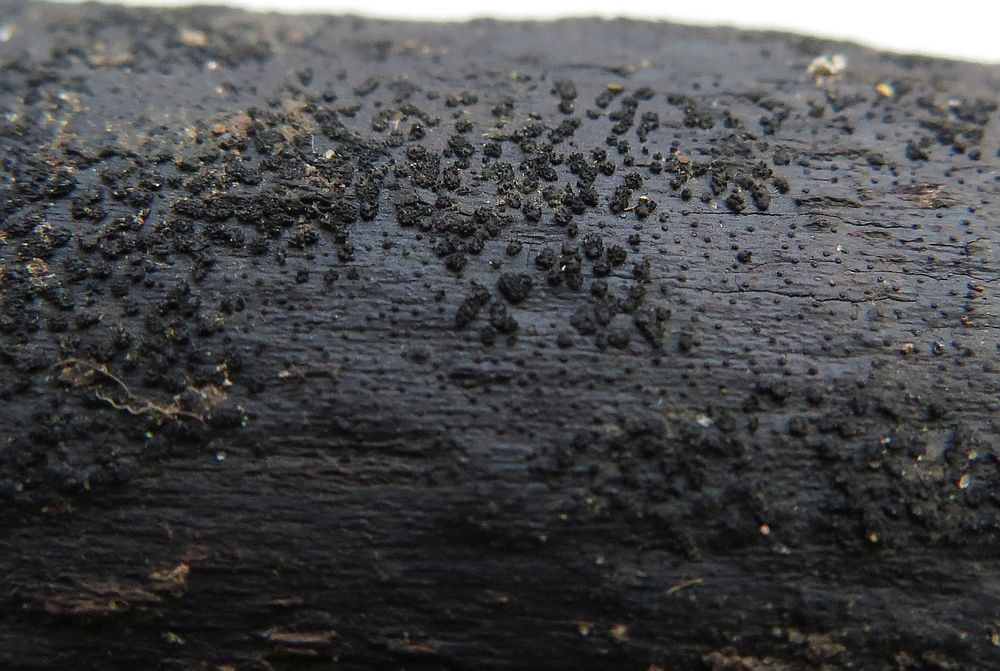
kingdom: Fungi
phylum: Ascomycota
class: Sordariomycetes
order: Coronophorales
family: Bertiaceae
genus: Bertia
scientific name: Bertia moriformis
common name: almindelig morbærkerne
